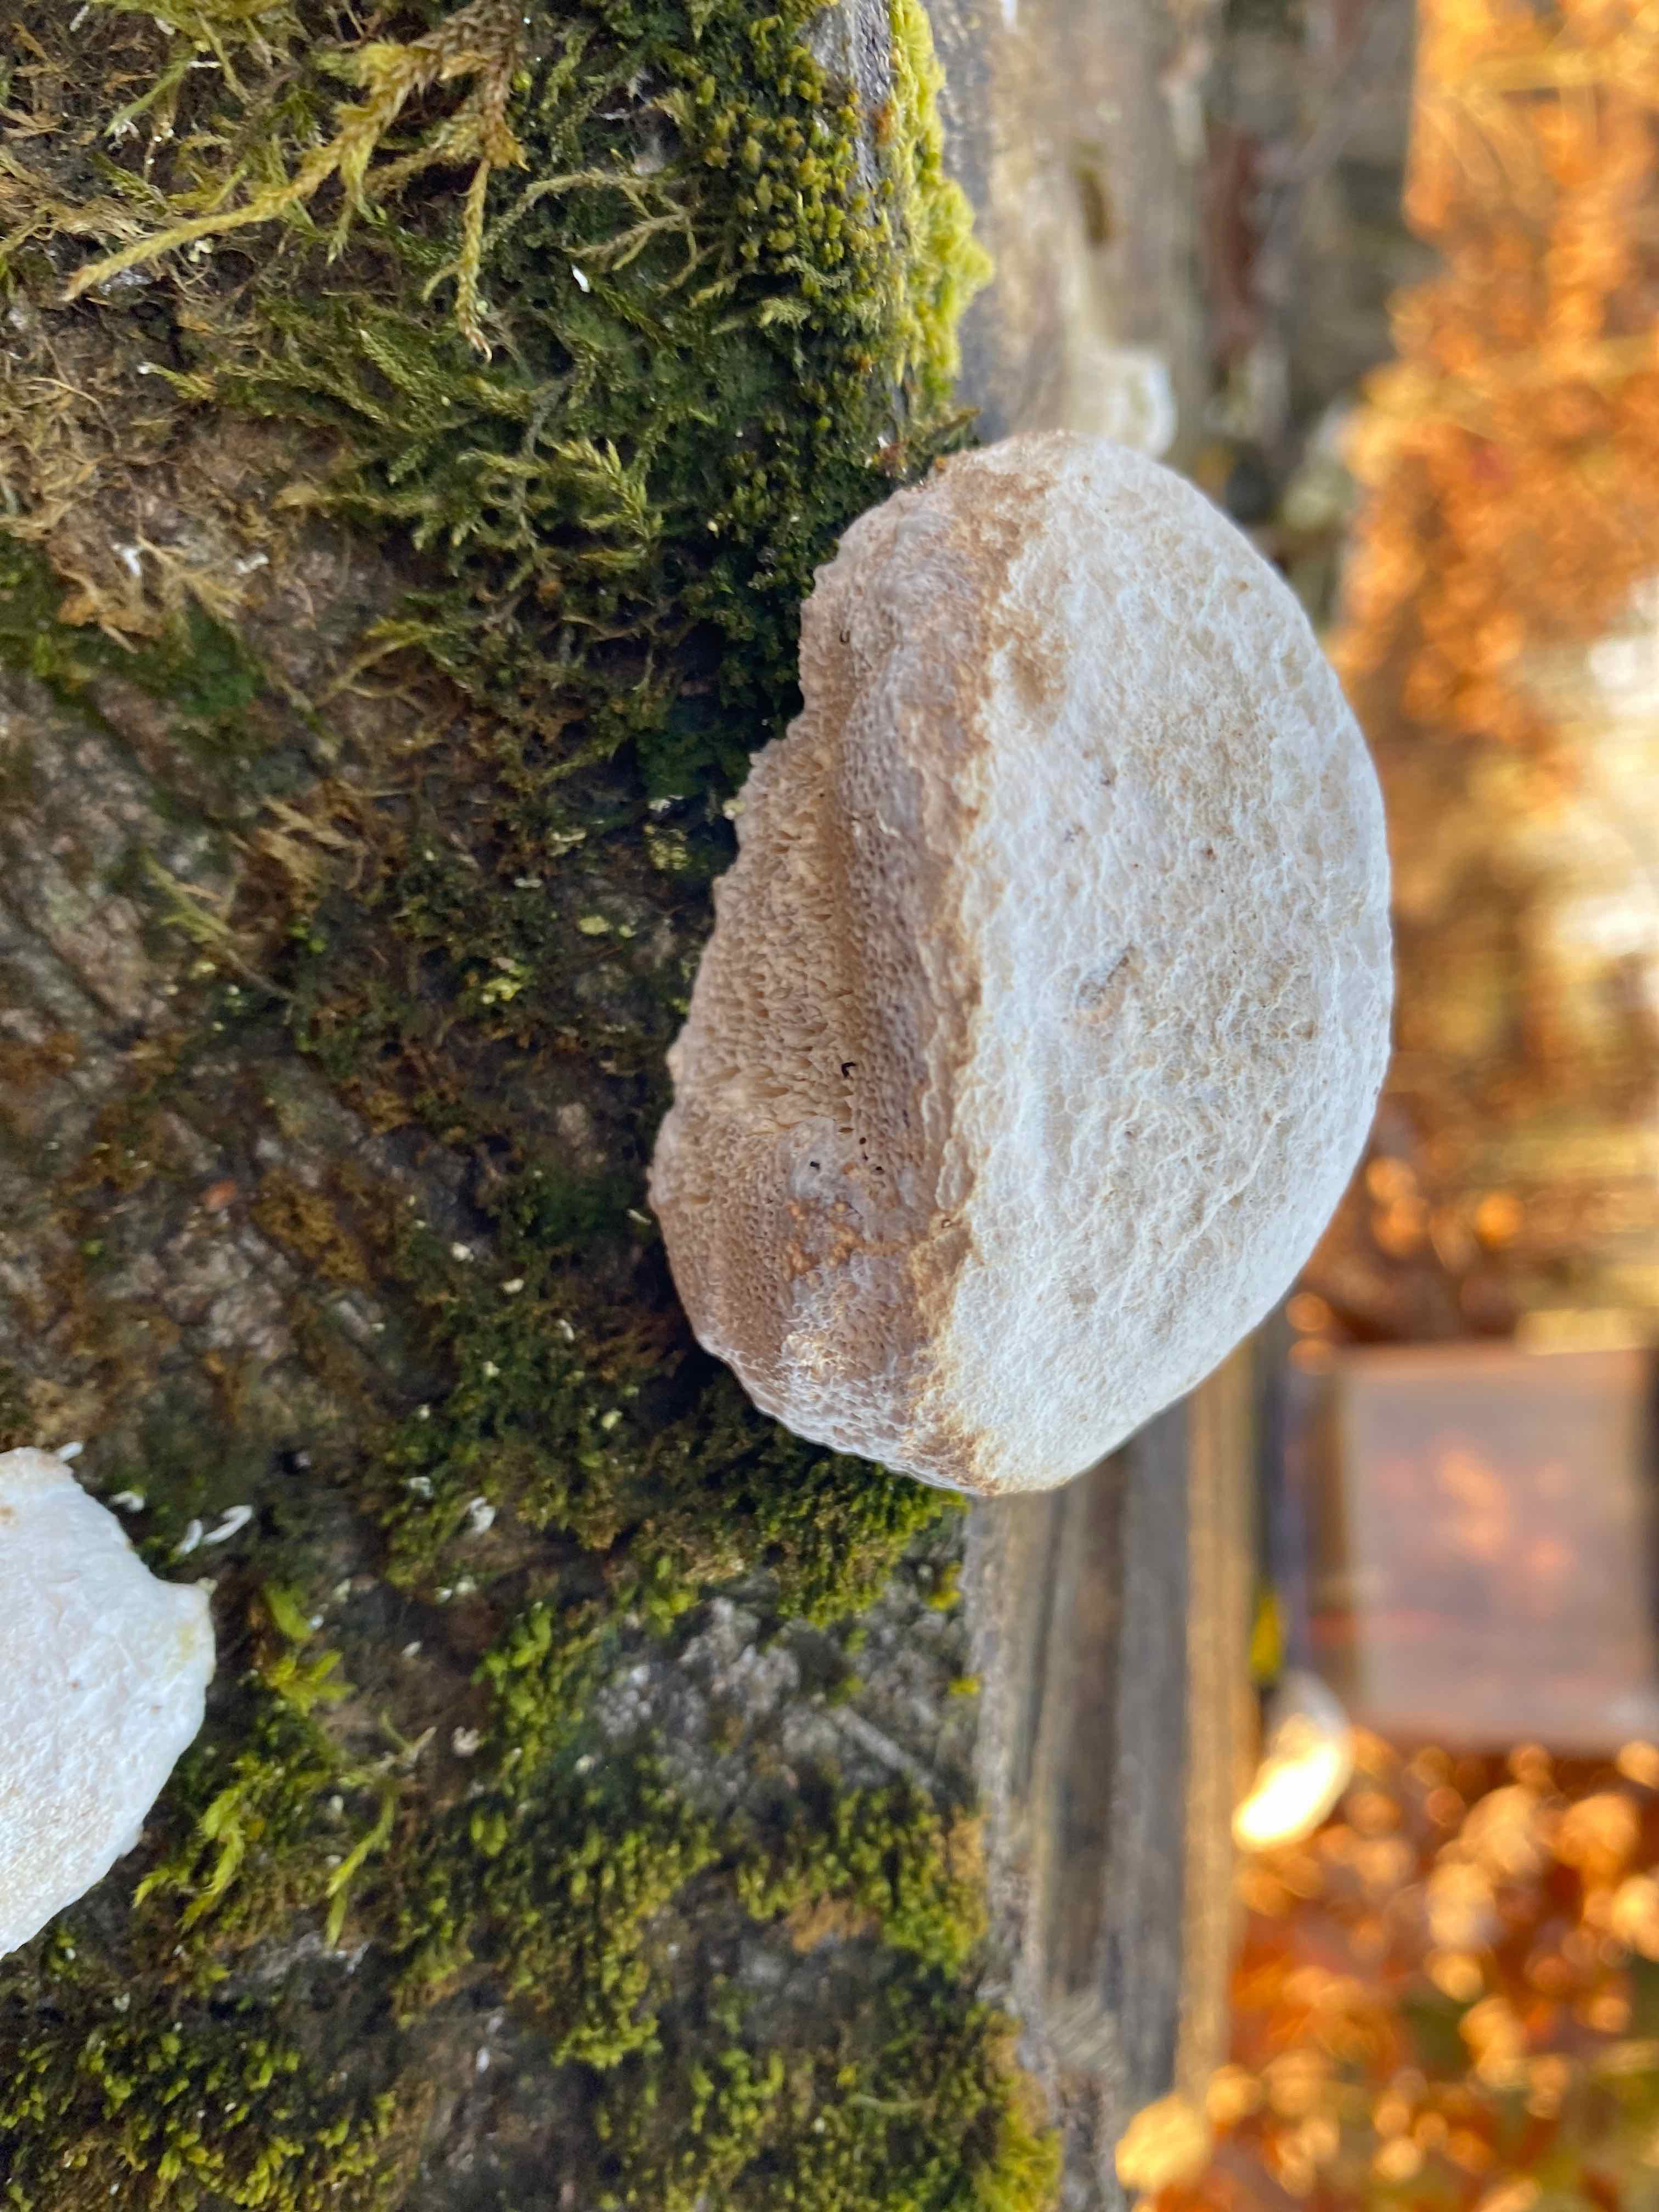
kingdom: Fungi
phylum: Basidiomycota
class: Agaricomycetes
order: Polyporales
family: Polyporaceae
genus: Trametes
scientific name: Trametes gibbosa
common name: puklet læderporesvamp
